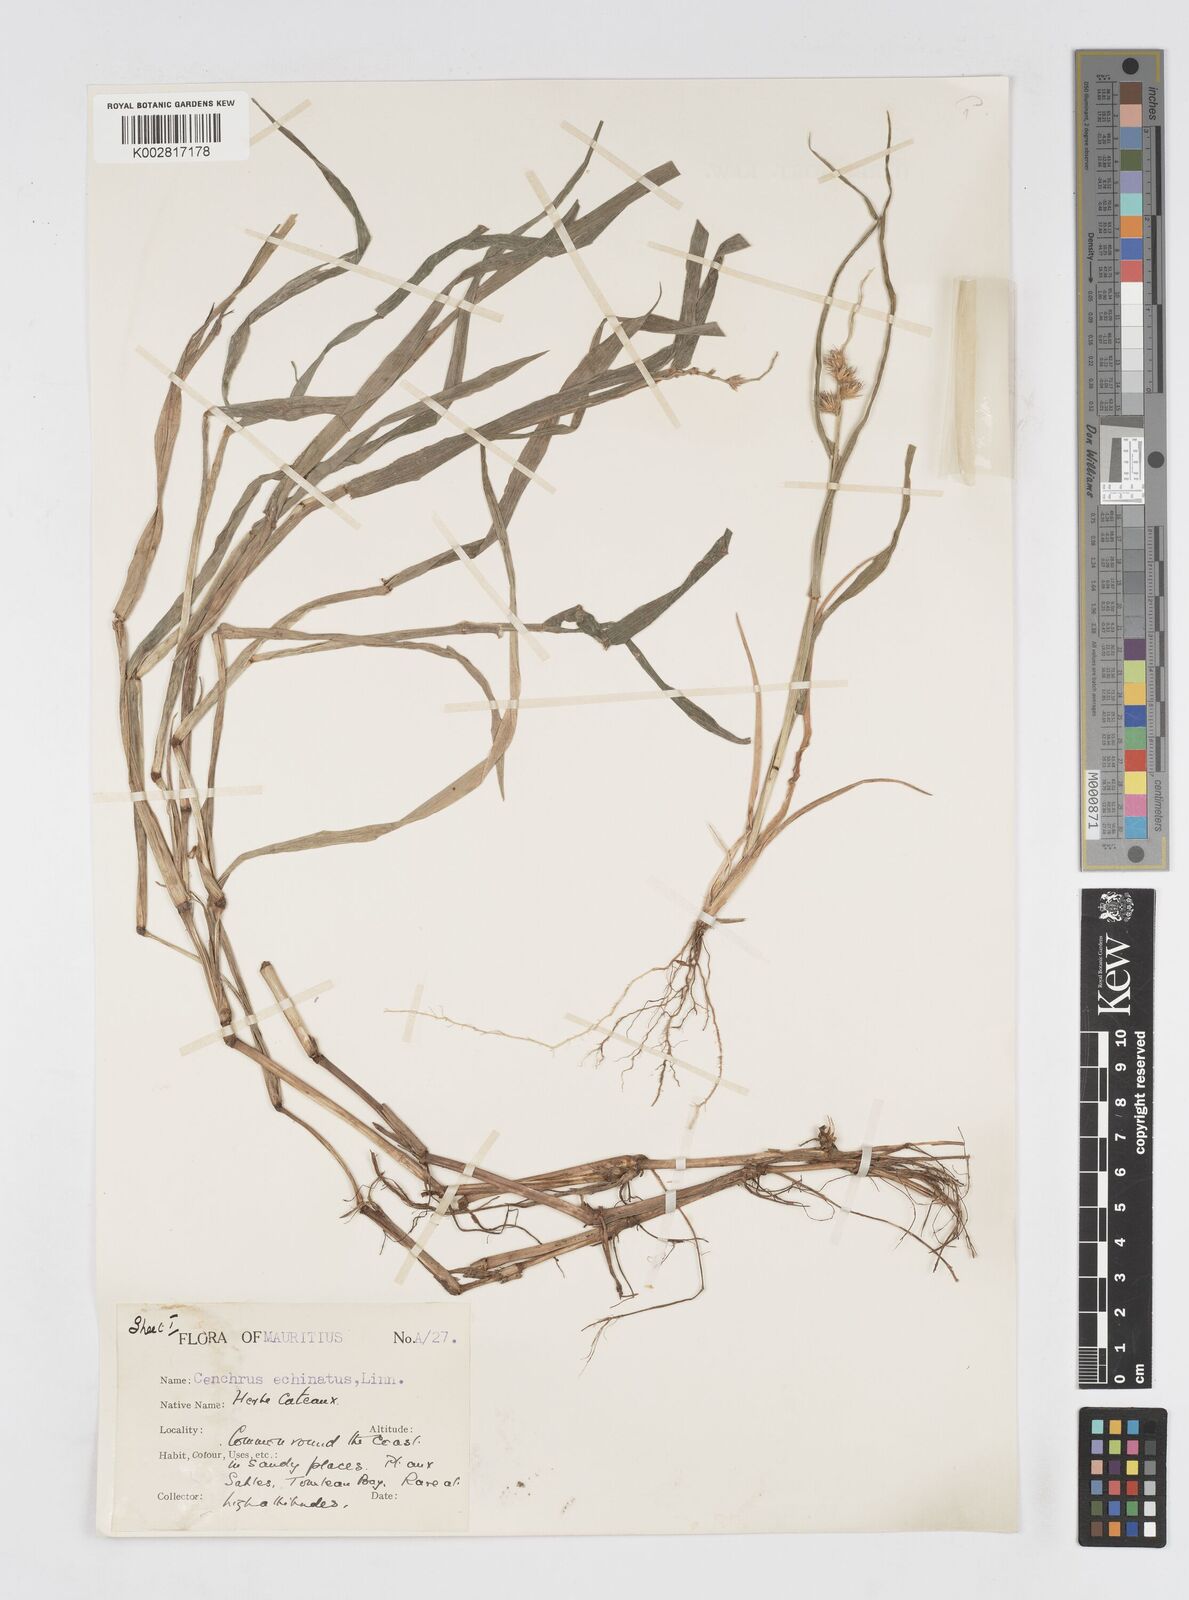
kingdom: Plantae
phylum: Tracheophyta
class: Liliopsida
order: Poales
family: Poaceae
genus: Cenchrus
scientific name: Cenchrus
